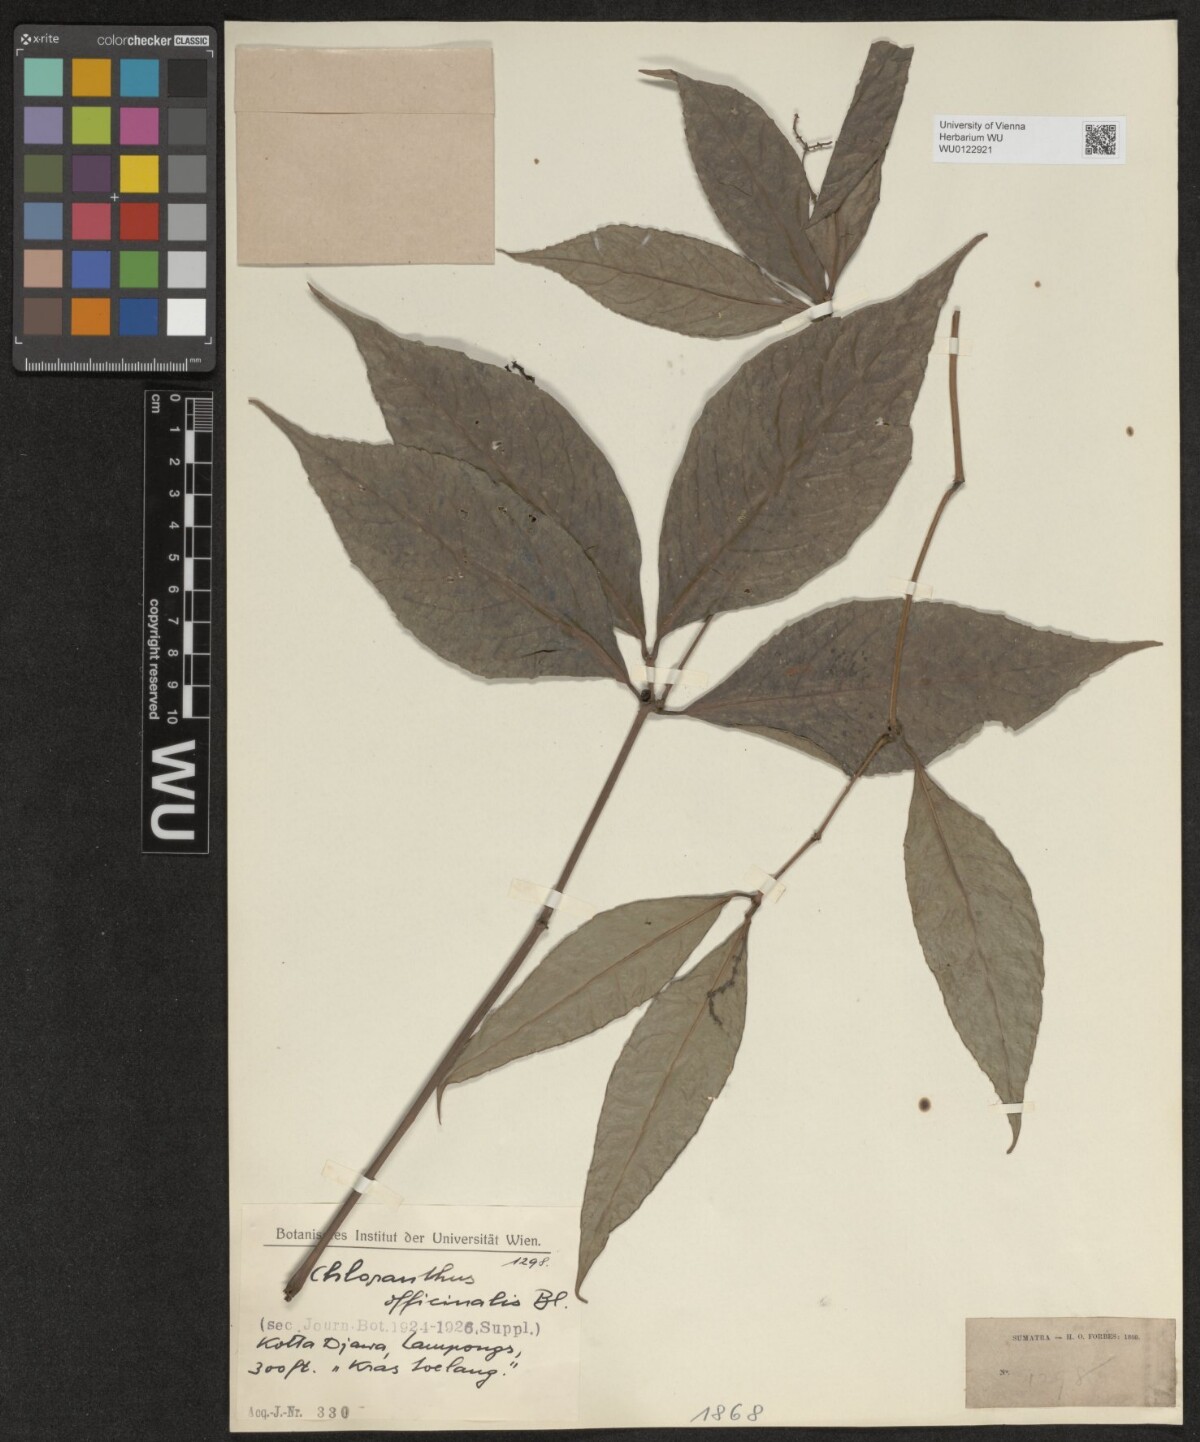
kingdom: Plantae
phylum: Tracheophyta
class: Magnoliopsida
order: Chloranthales
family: Chloranthaceae
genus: Chloranthus
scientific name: Chloranthus elatior
